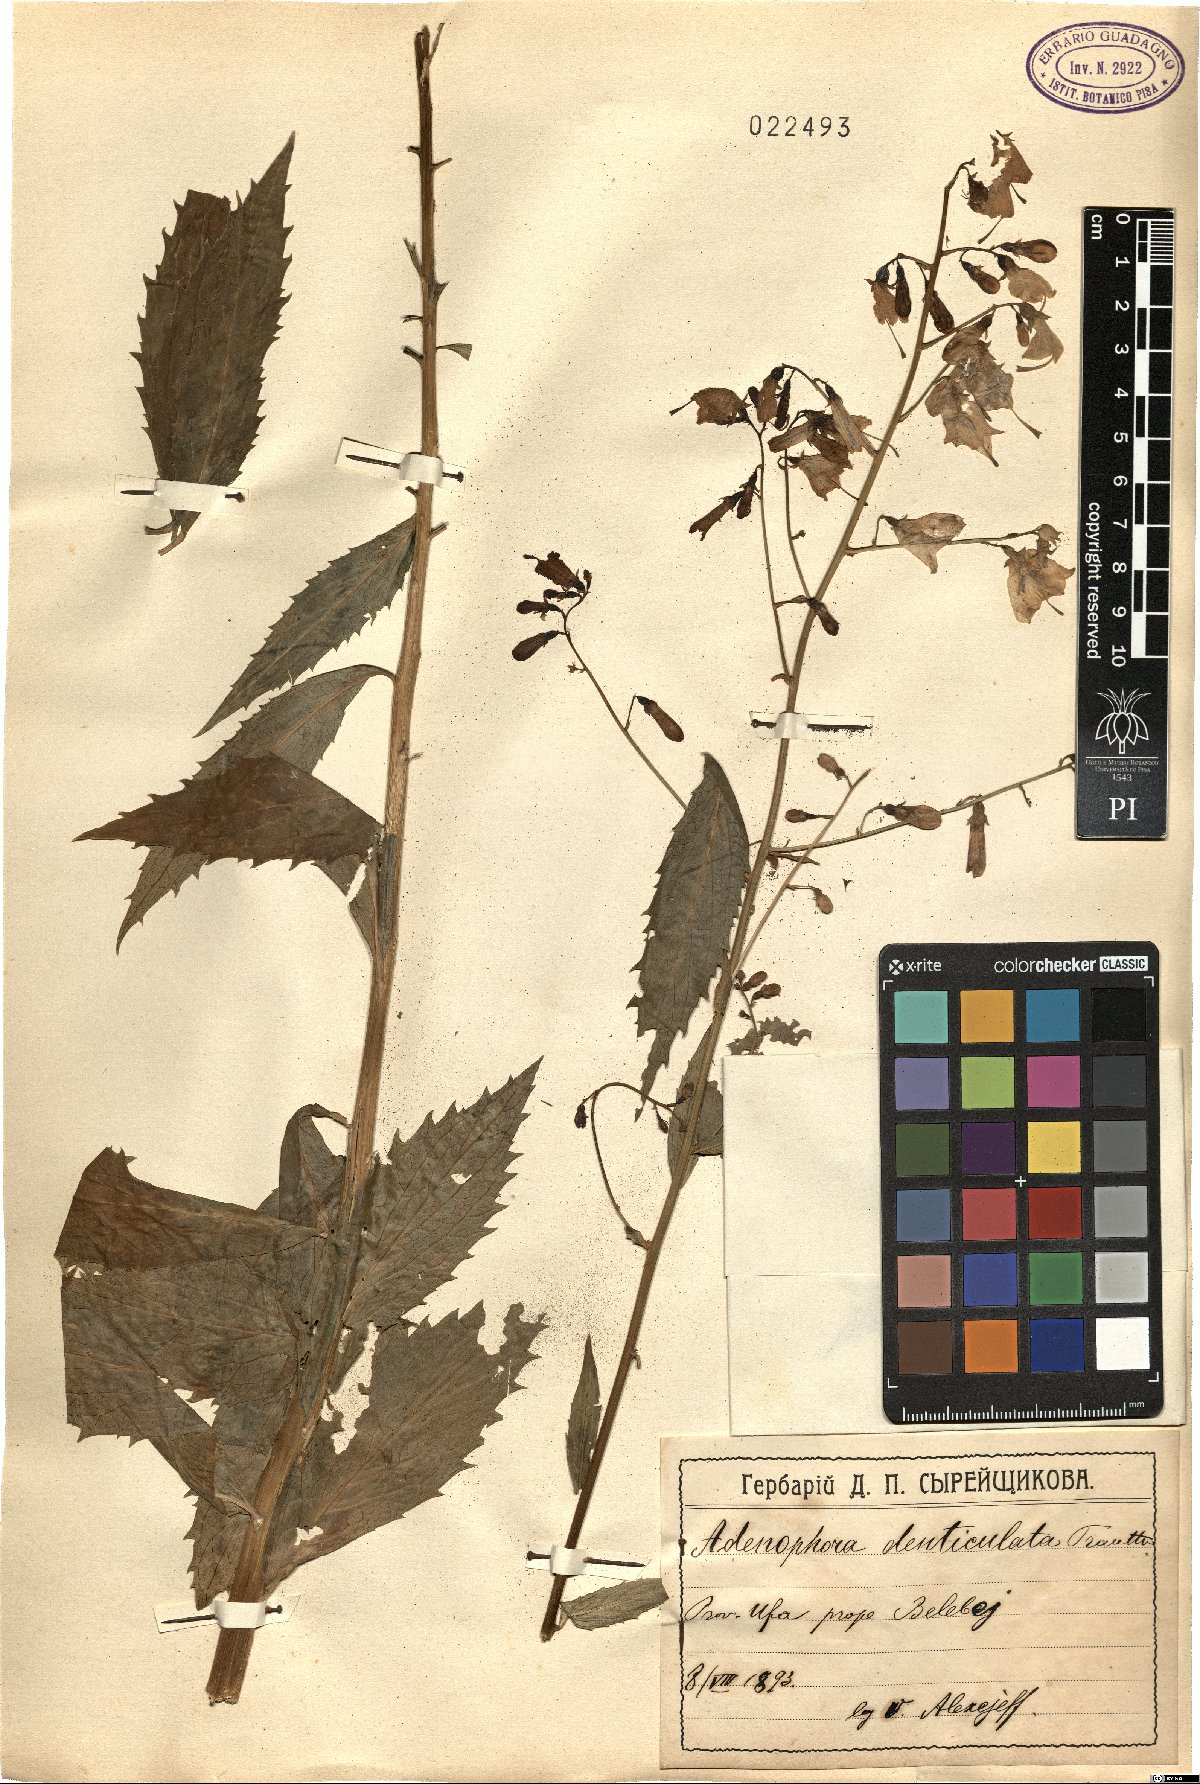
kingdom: Plantae
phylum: Tracheophyta
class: Magnoliopsida
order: Asterales
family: Campanulaceae
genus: Adenophora
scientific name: Adenophora tricuspidata
